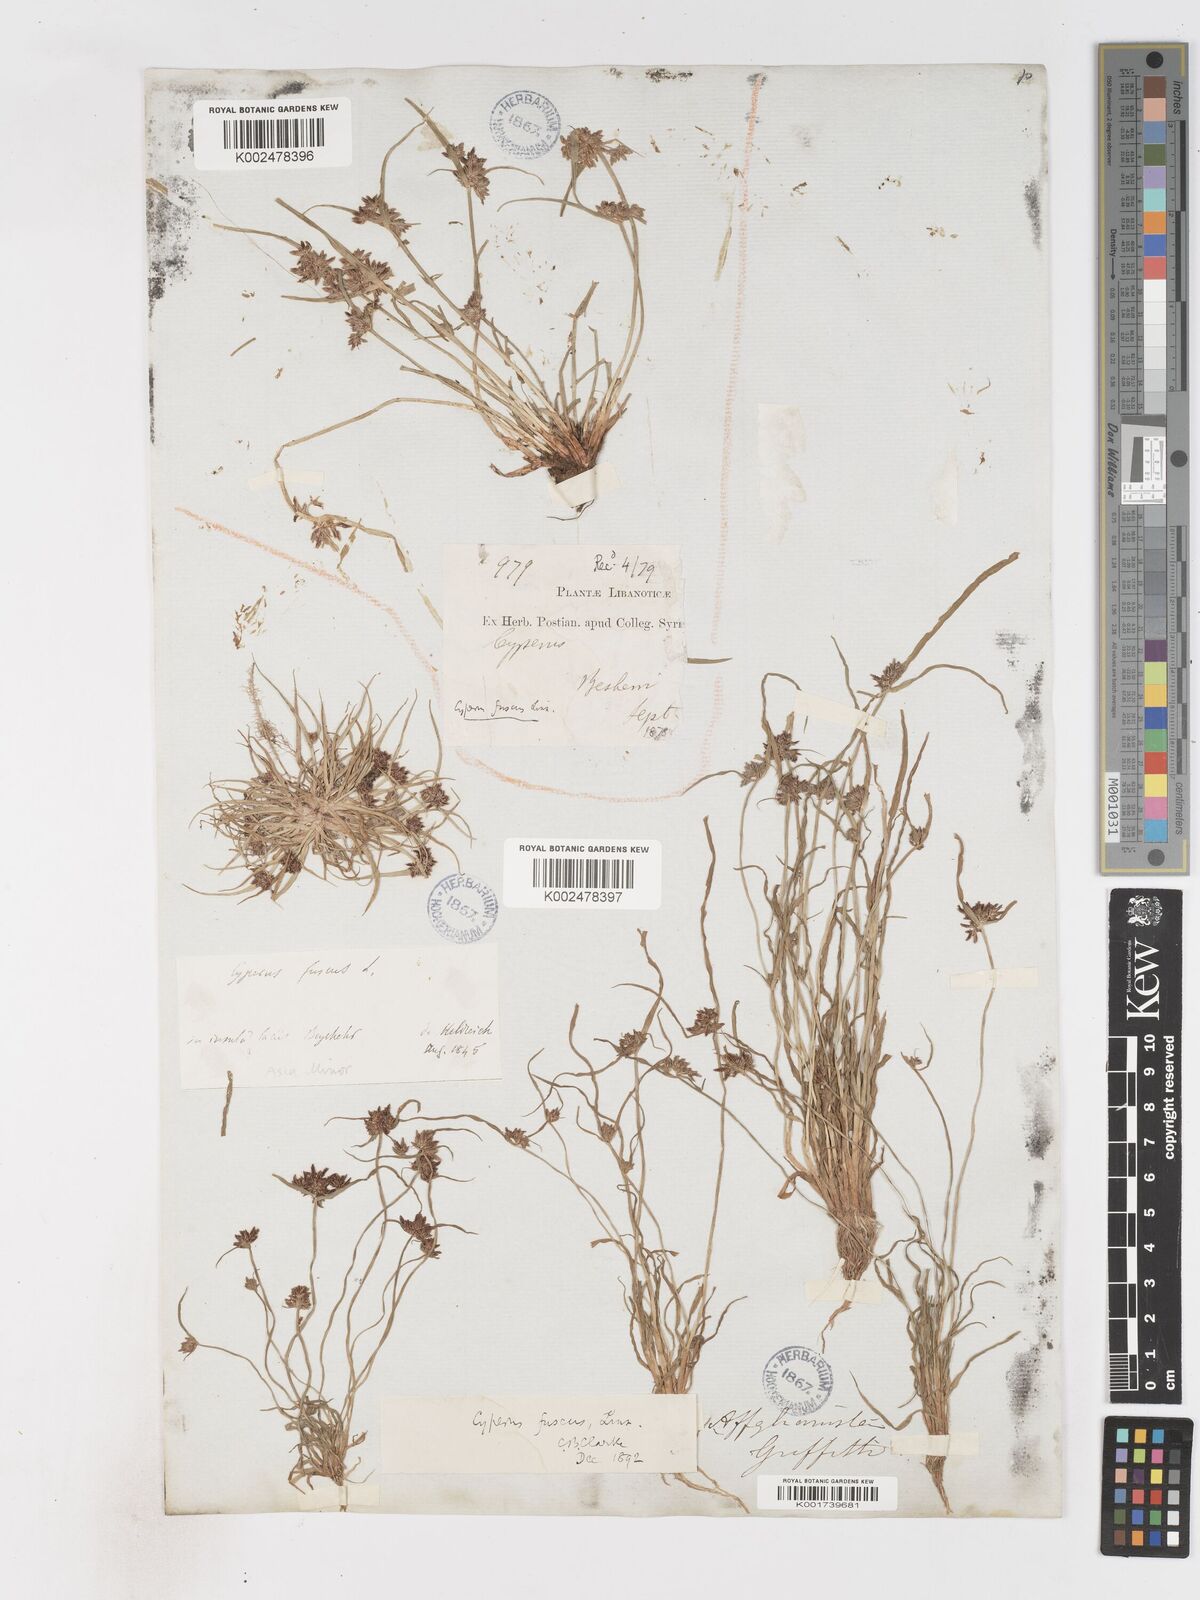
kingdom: Plantae
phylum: Tracheophyta
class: Liliopsida
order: Poales
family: Cyperaceae
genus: Cyperus
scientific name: Cyperus fuscus
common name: Brown galingale
